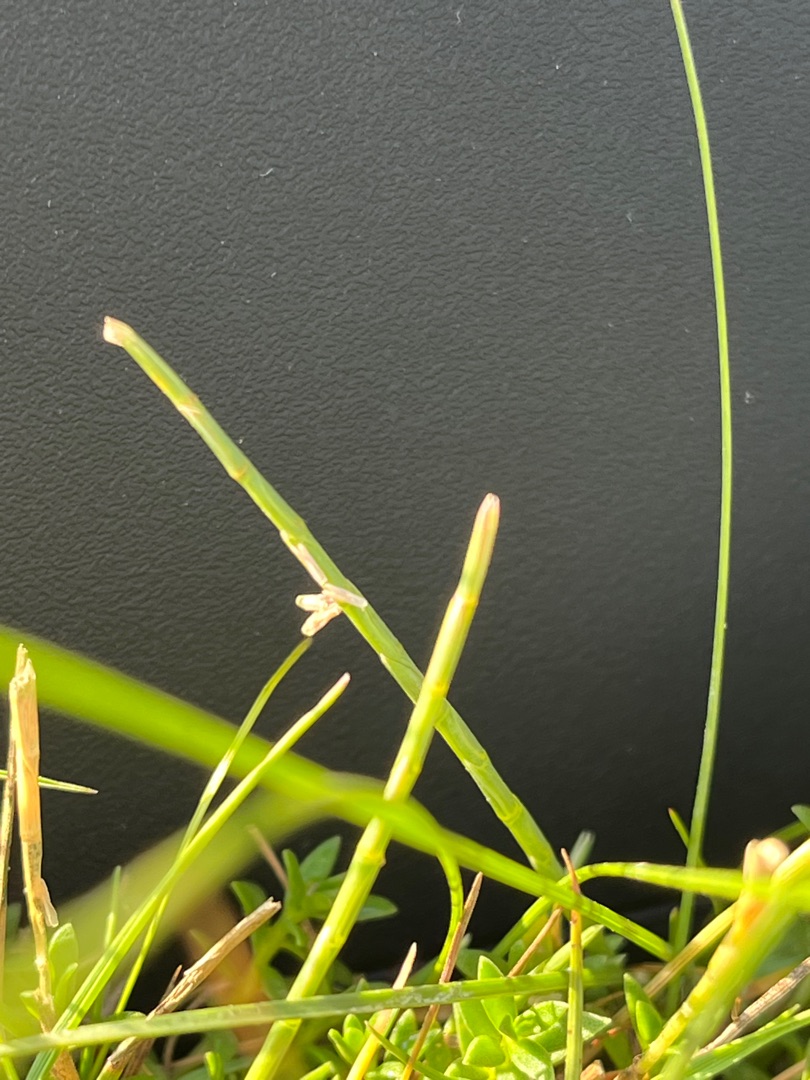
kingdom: Plantae
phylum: Tracheophyta
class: Liliopsida
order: Poales
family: Poaceae
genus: Parapholis
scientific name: Parapholis strigosa
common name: Spidshale
